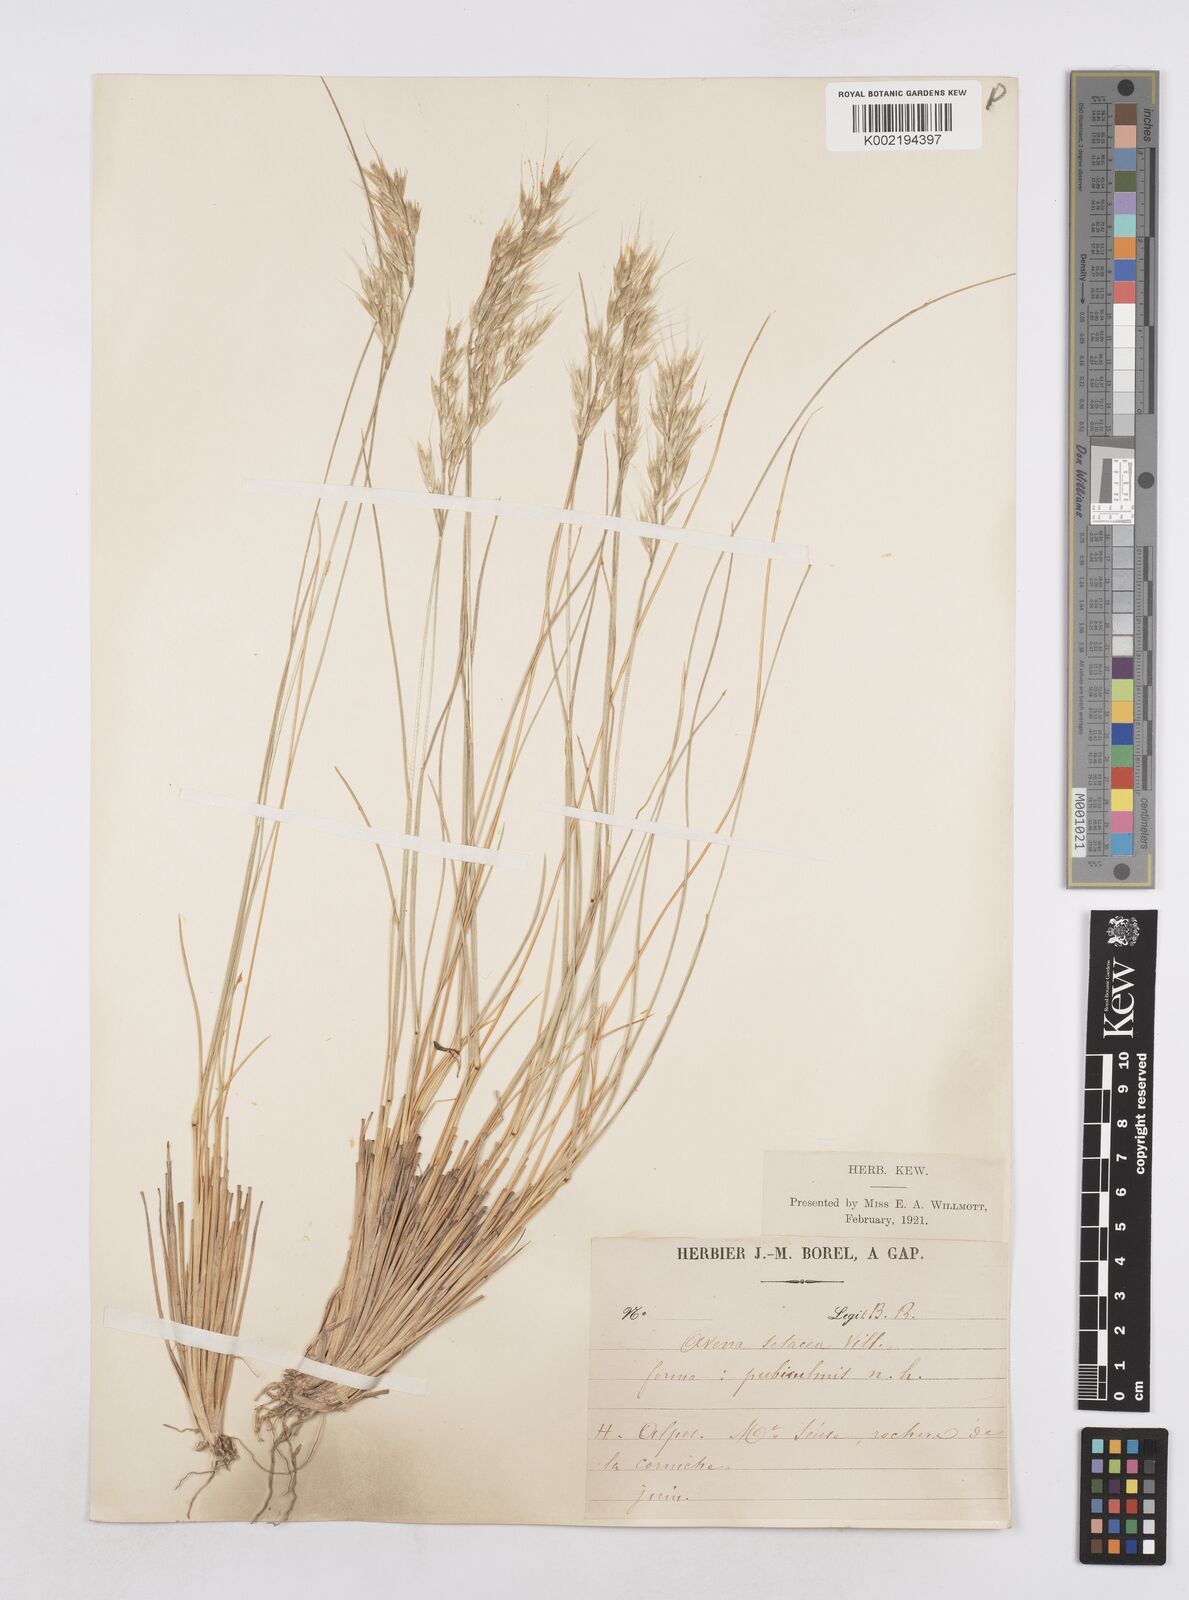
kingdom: Plantae
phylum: Tracheophyta
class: Liliopsida
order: Poales
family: Poaceae
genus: Helictotrichon
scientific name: Helictotrichon setaceum
